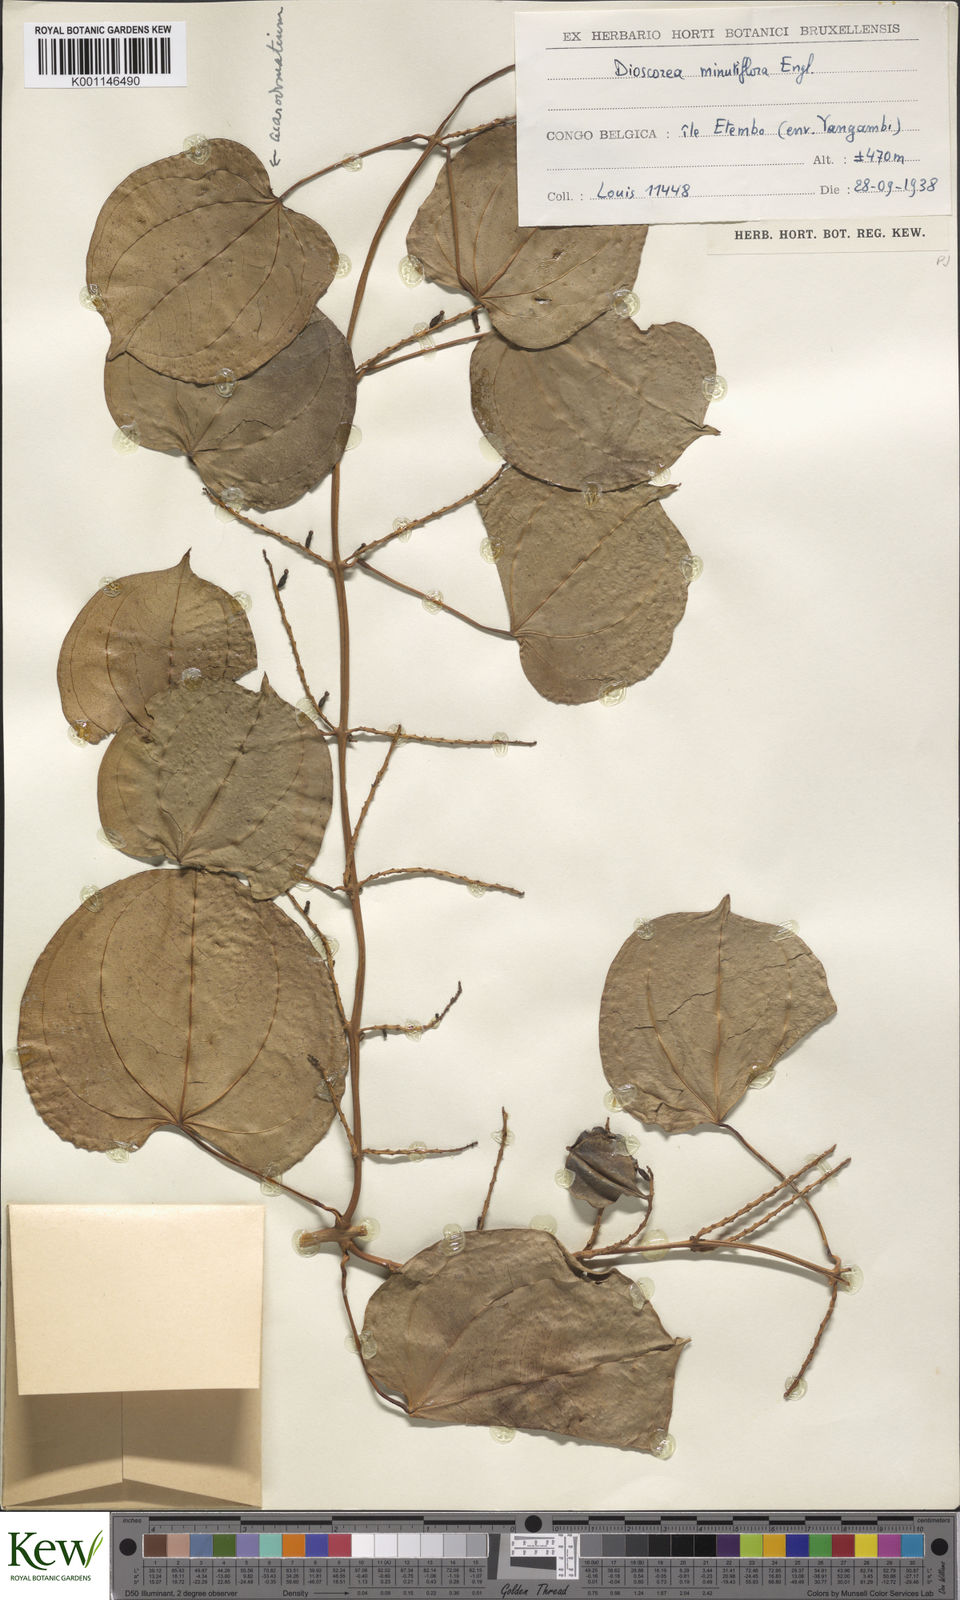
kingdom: Plantae
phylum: Tracheophyta
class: Liliopsida
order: Dioscoreales
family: Dioscoreaceae
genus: Dioscorea
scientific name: Dioscorea minutiflora
